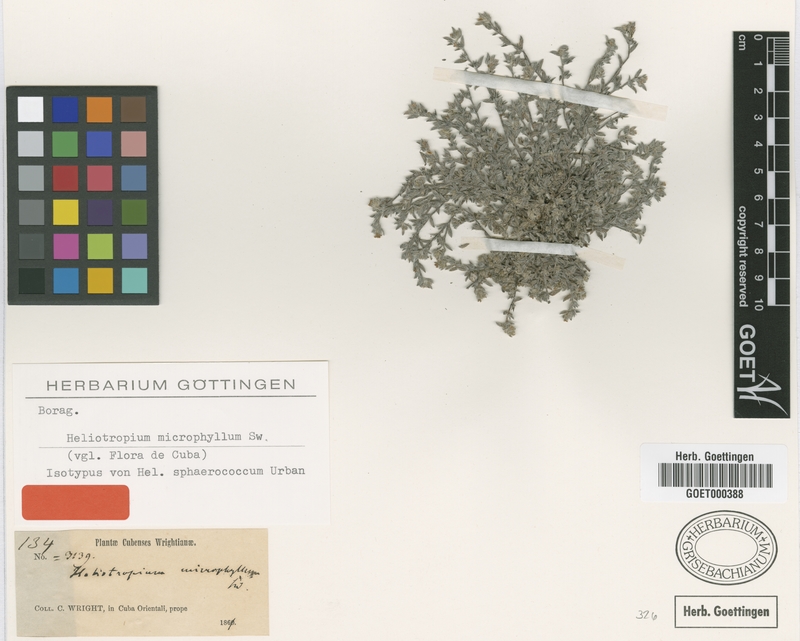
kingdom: Plantae
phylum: Tracheophyta
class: Magnoliopsida
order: Boraginales
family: Heliotropiaceae
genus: Heliotropium
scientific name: Heliotropium microphyllum
